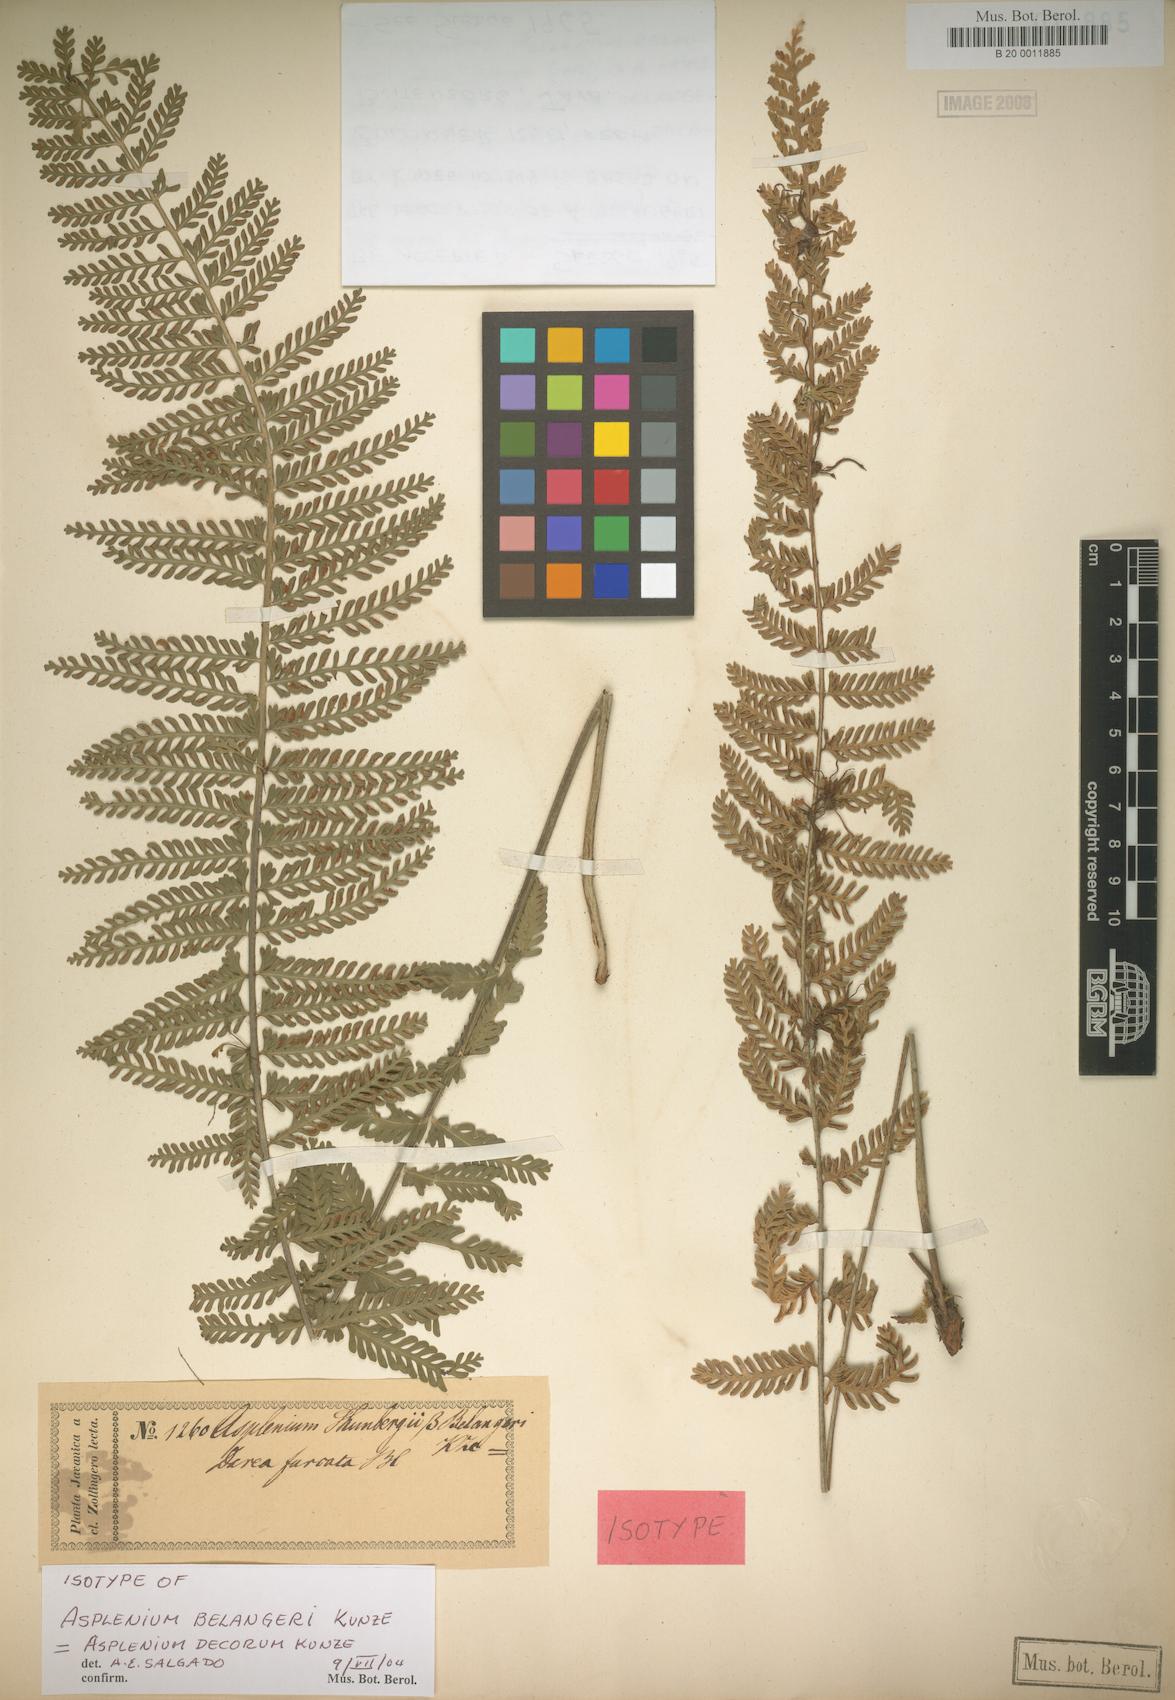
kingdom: Plantae
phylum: Tracheophyta
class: Polypodiopsida
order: Polypodiales
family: Aspleniaceae
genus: Asplenium
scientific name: Asplenium thunbergii
